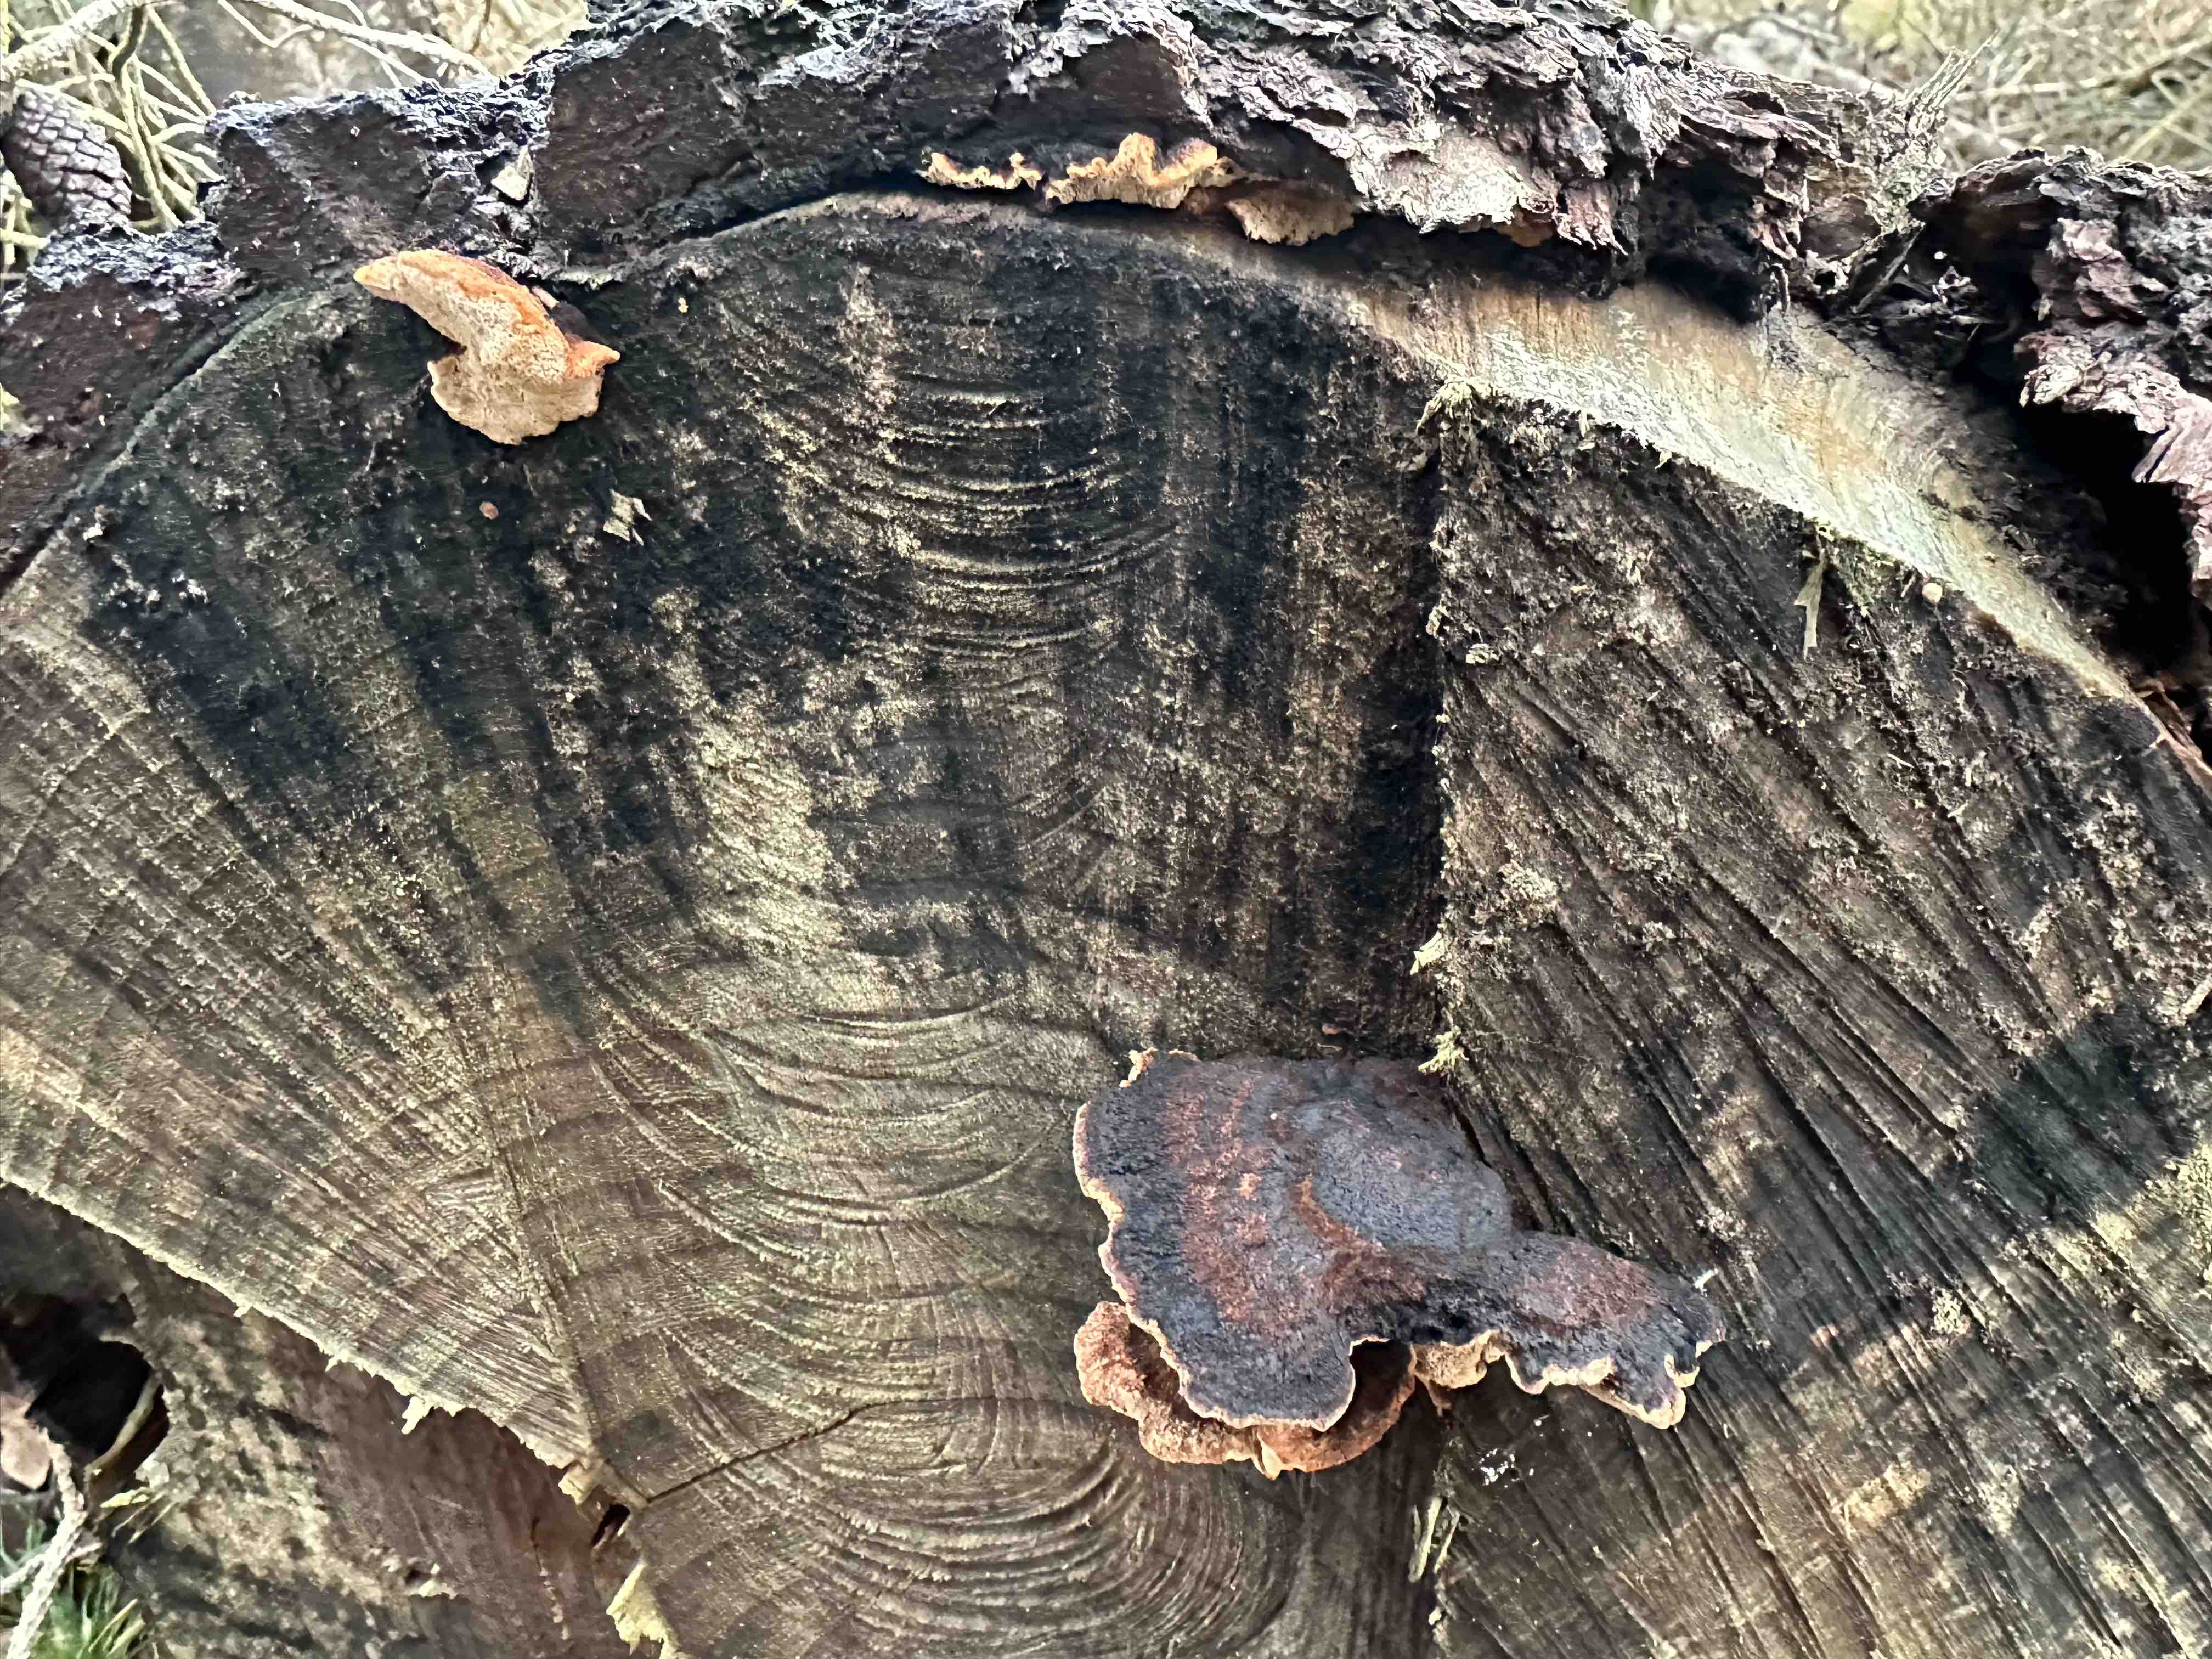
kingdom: Fungi
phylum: Basidiomycota
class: Agaricomycetes
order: Polyporales
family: Ischnodermataceae
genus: Ischnoderma
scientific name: Ischnoderma benzoinum
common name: gran-tjæreporesvamp
